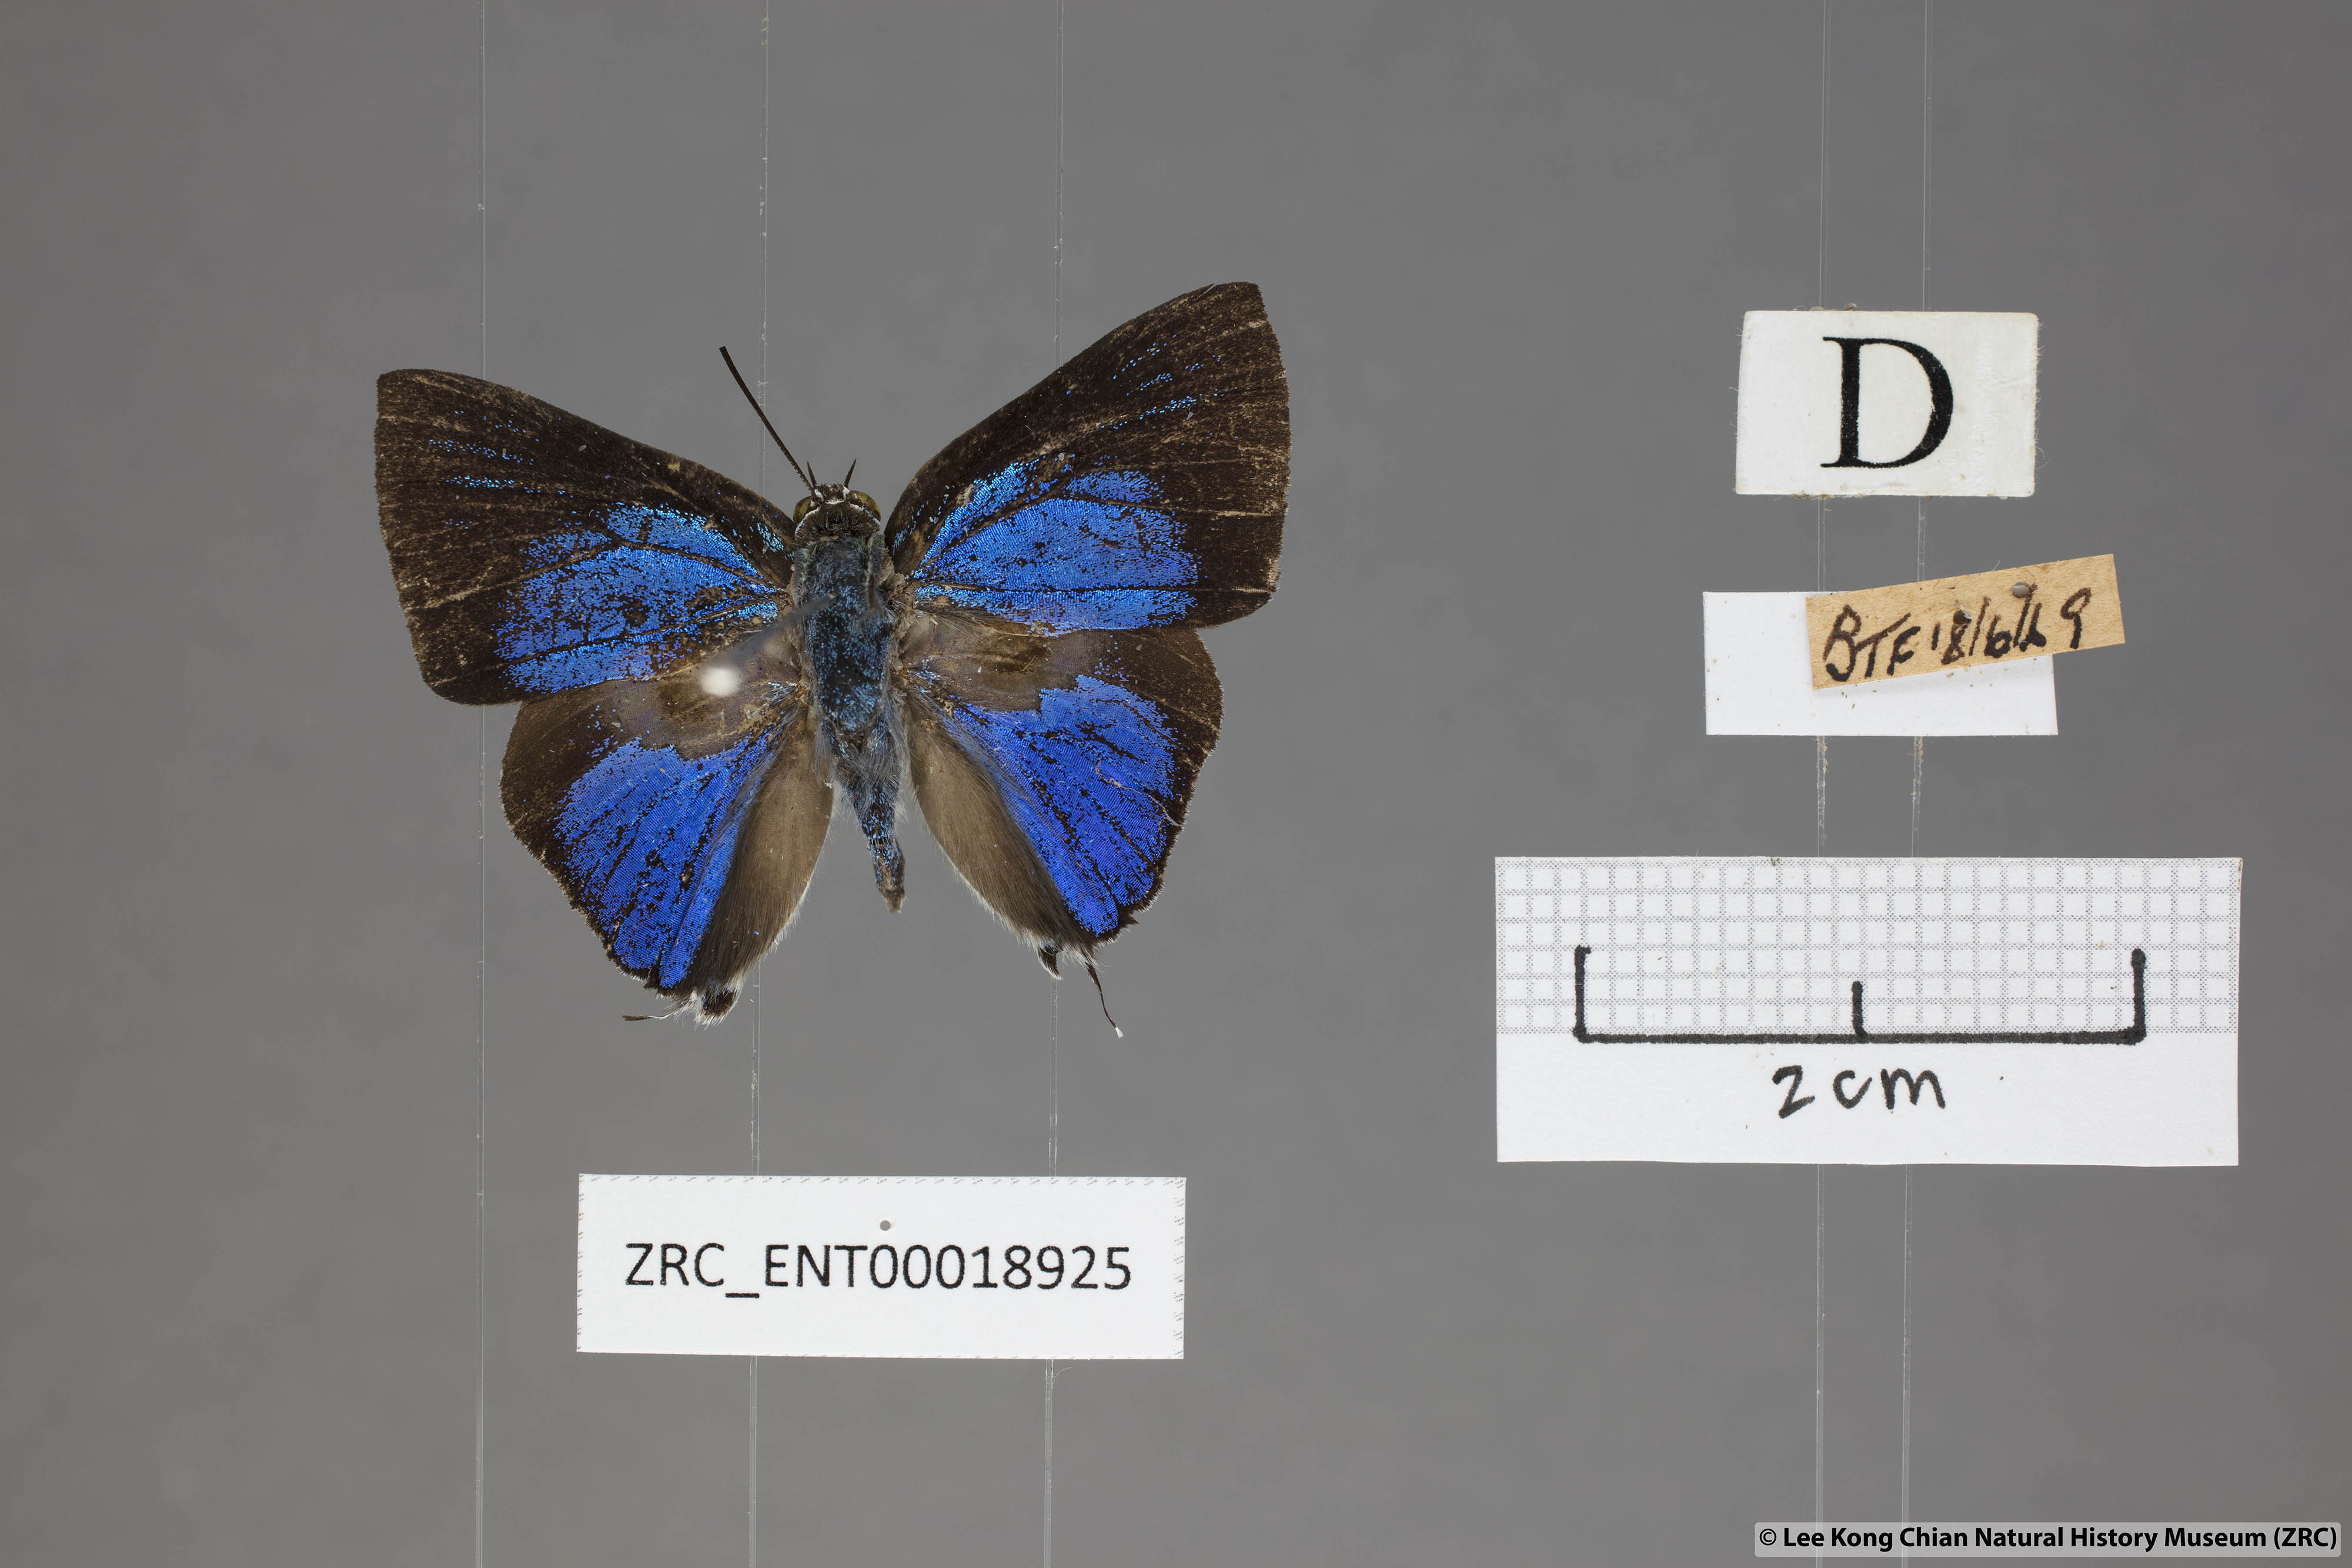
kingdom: Animalia
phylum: Arthropoda
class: Insecta
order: Lepidoptera
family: Lycaenidae
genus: Ancema
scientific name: Ancema blanka
